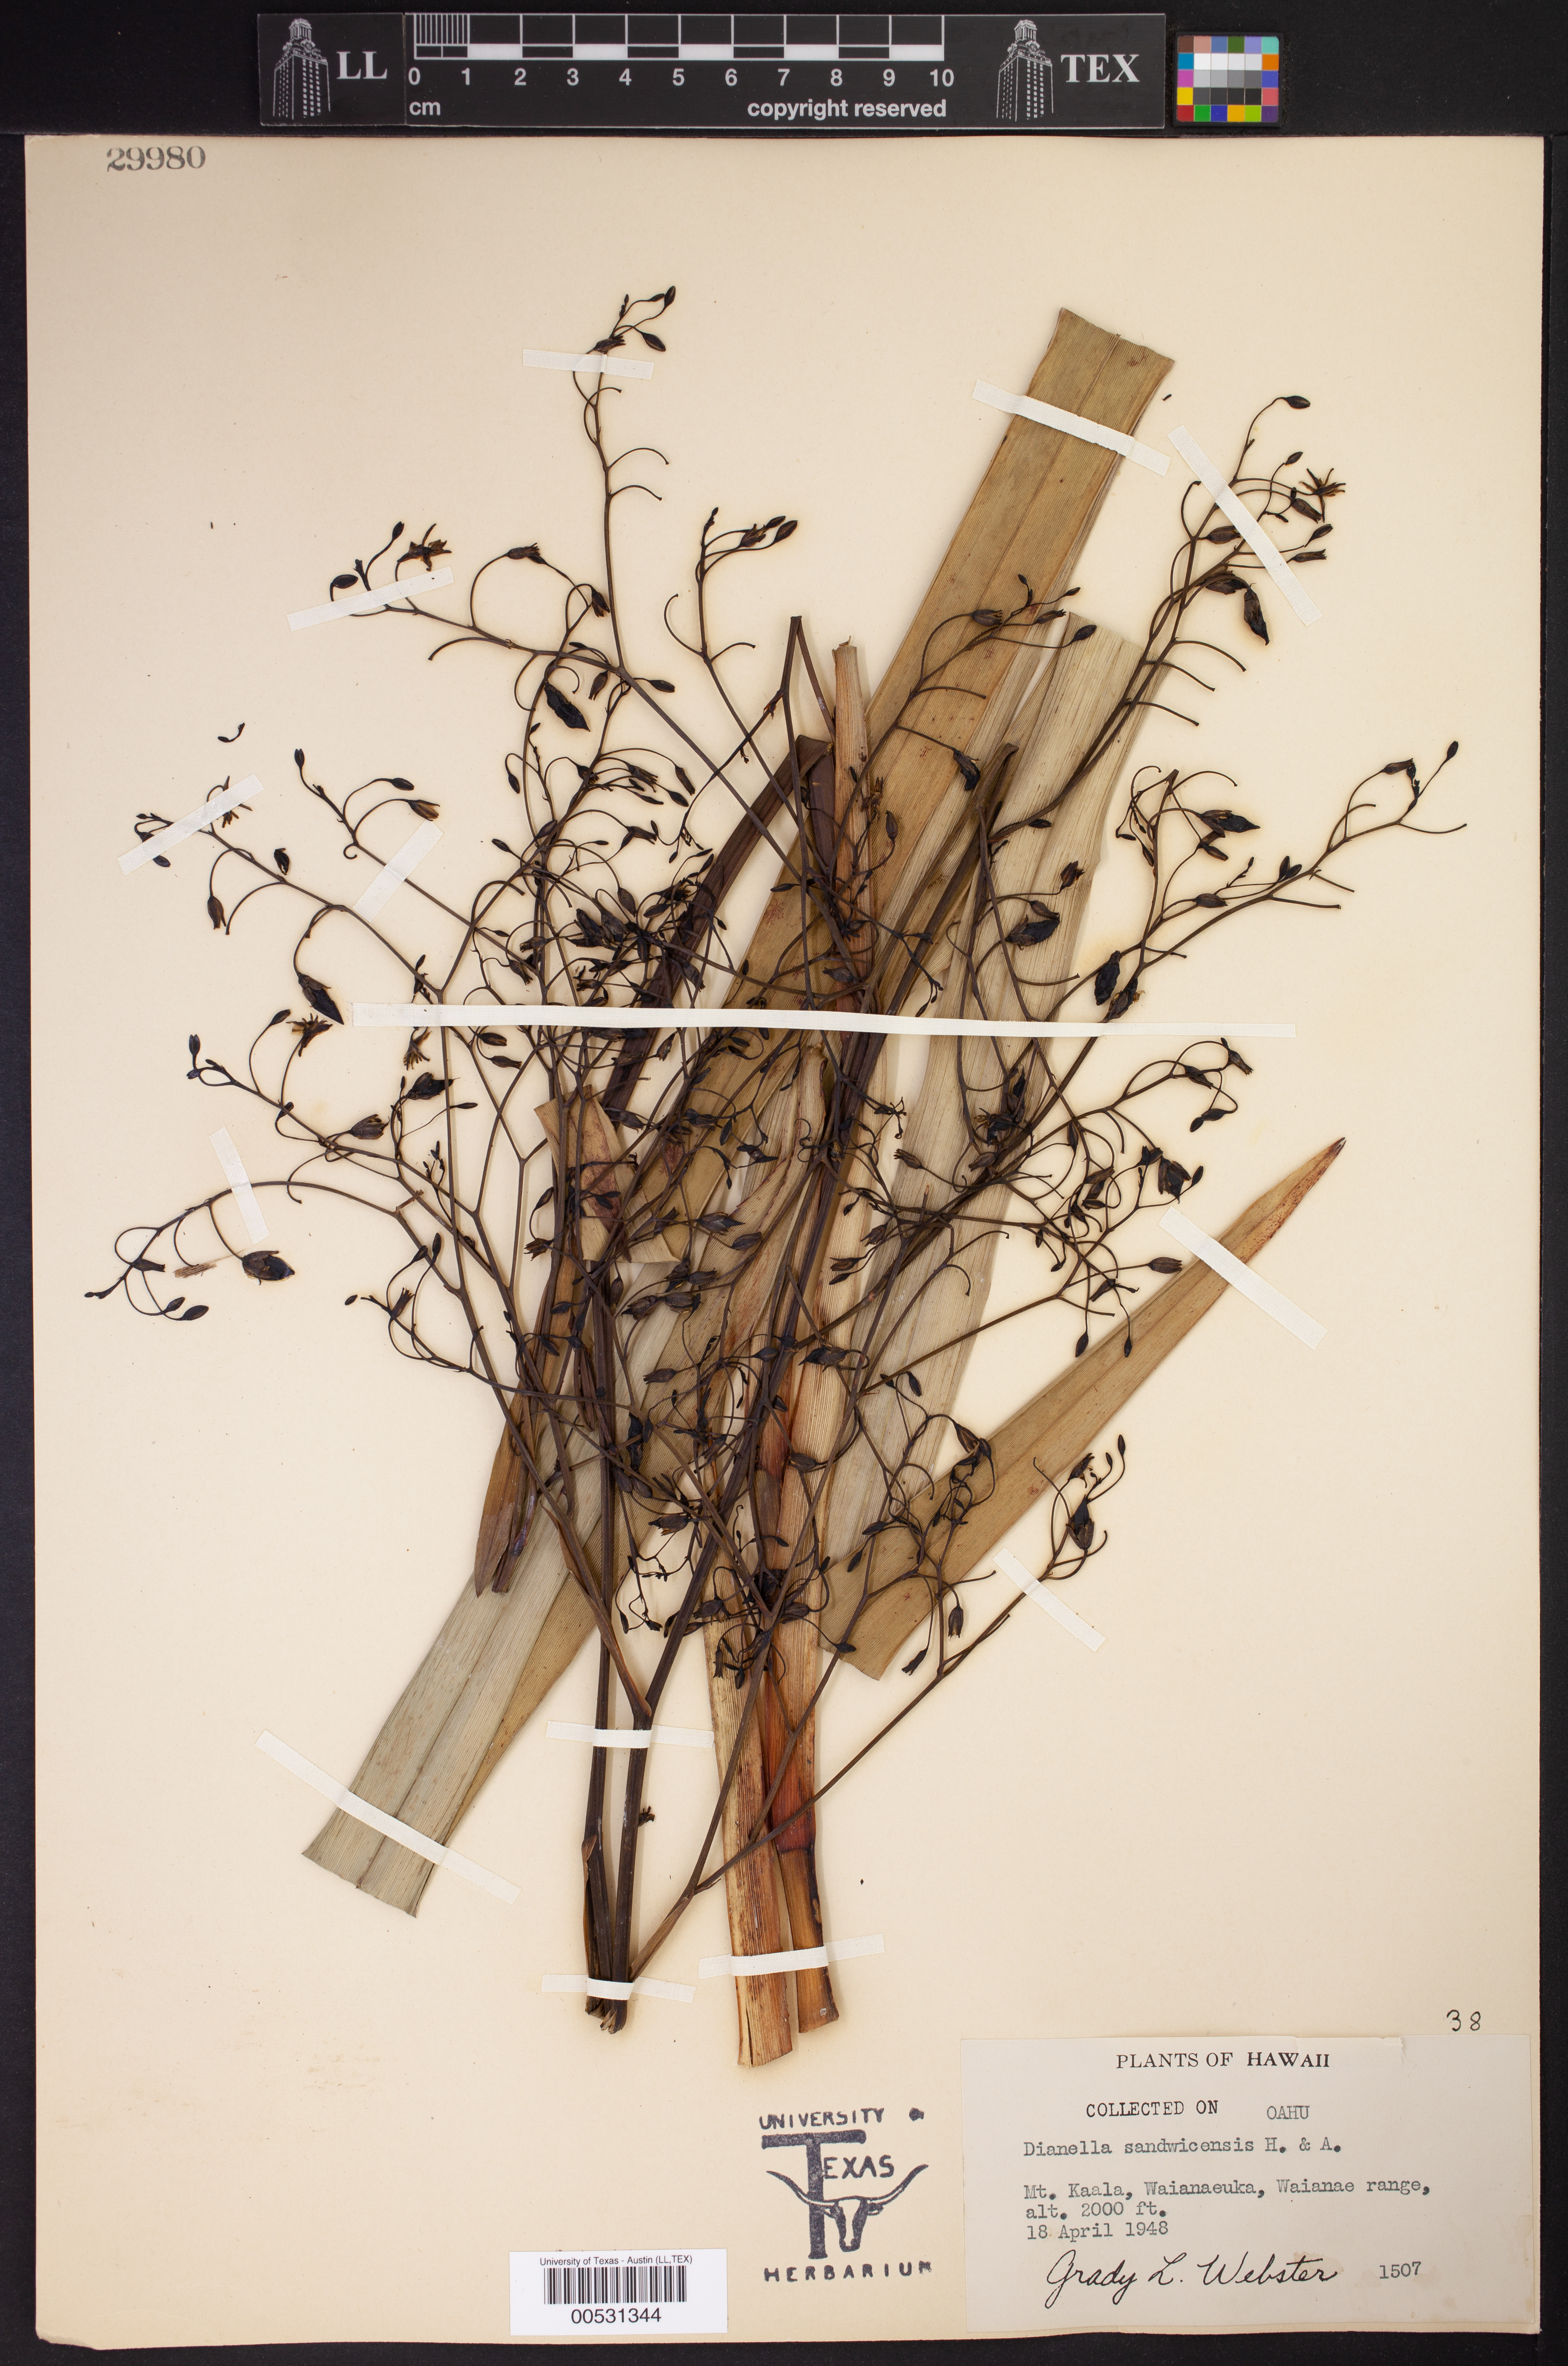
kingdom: Plantae
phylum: Tracheophyta
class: Liliopsida
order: Asparagales
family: Asphodelaceae
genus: Dianella
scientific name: Dianella sandwicensis
